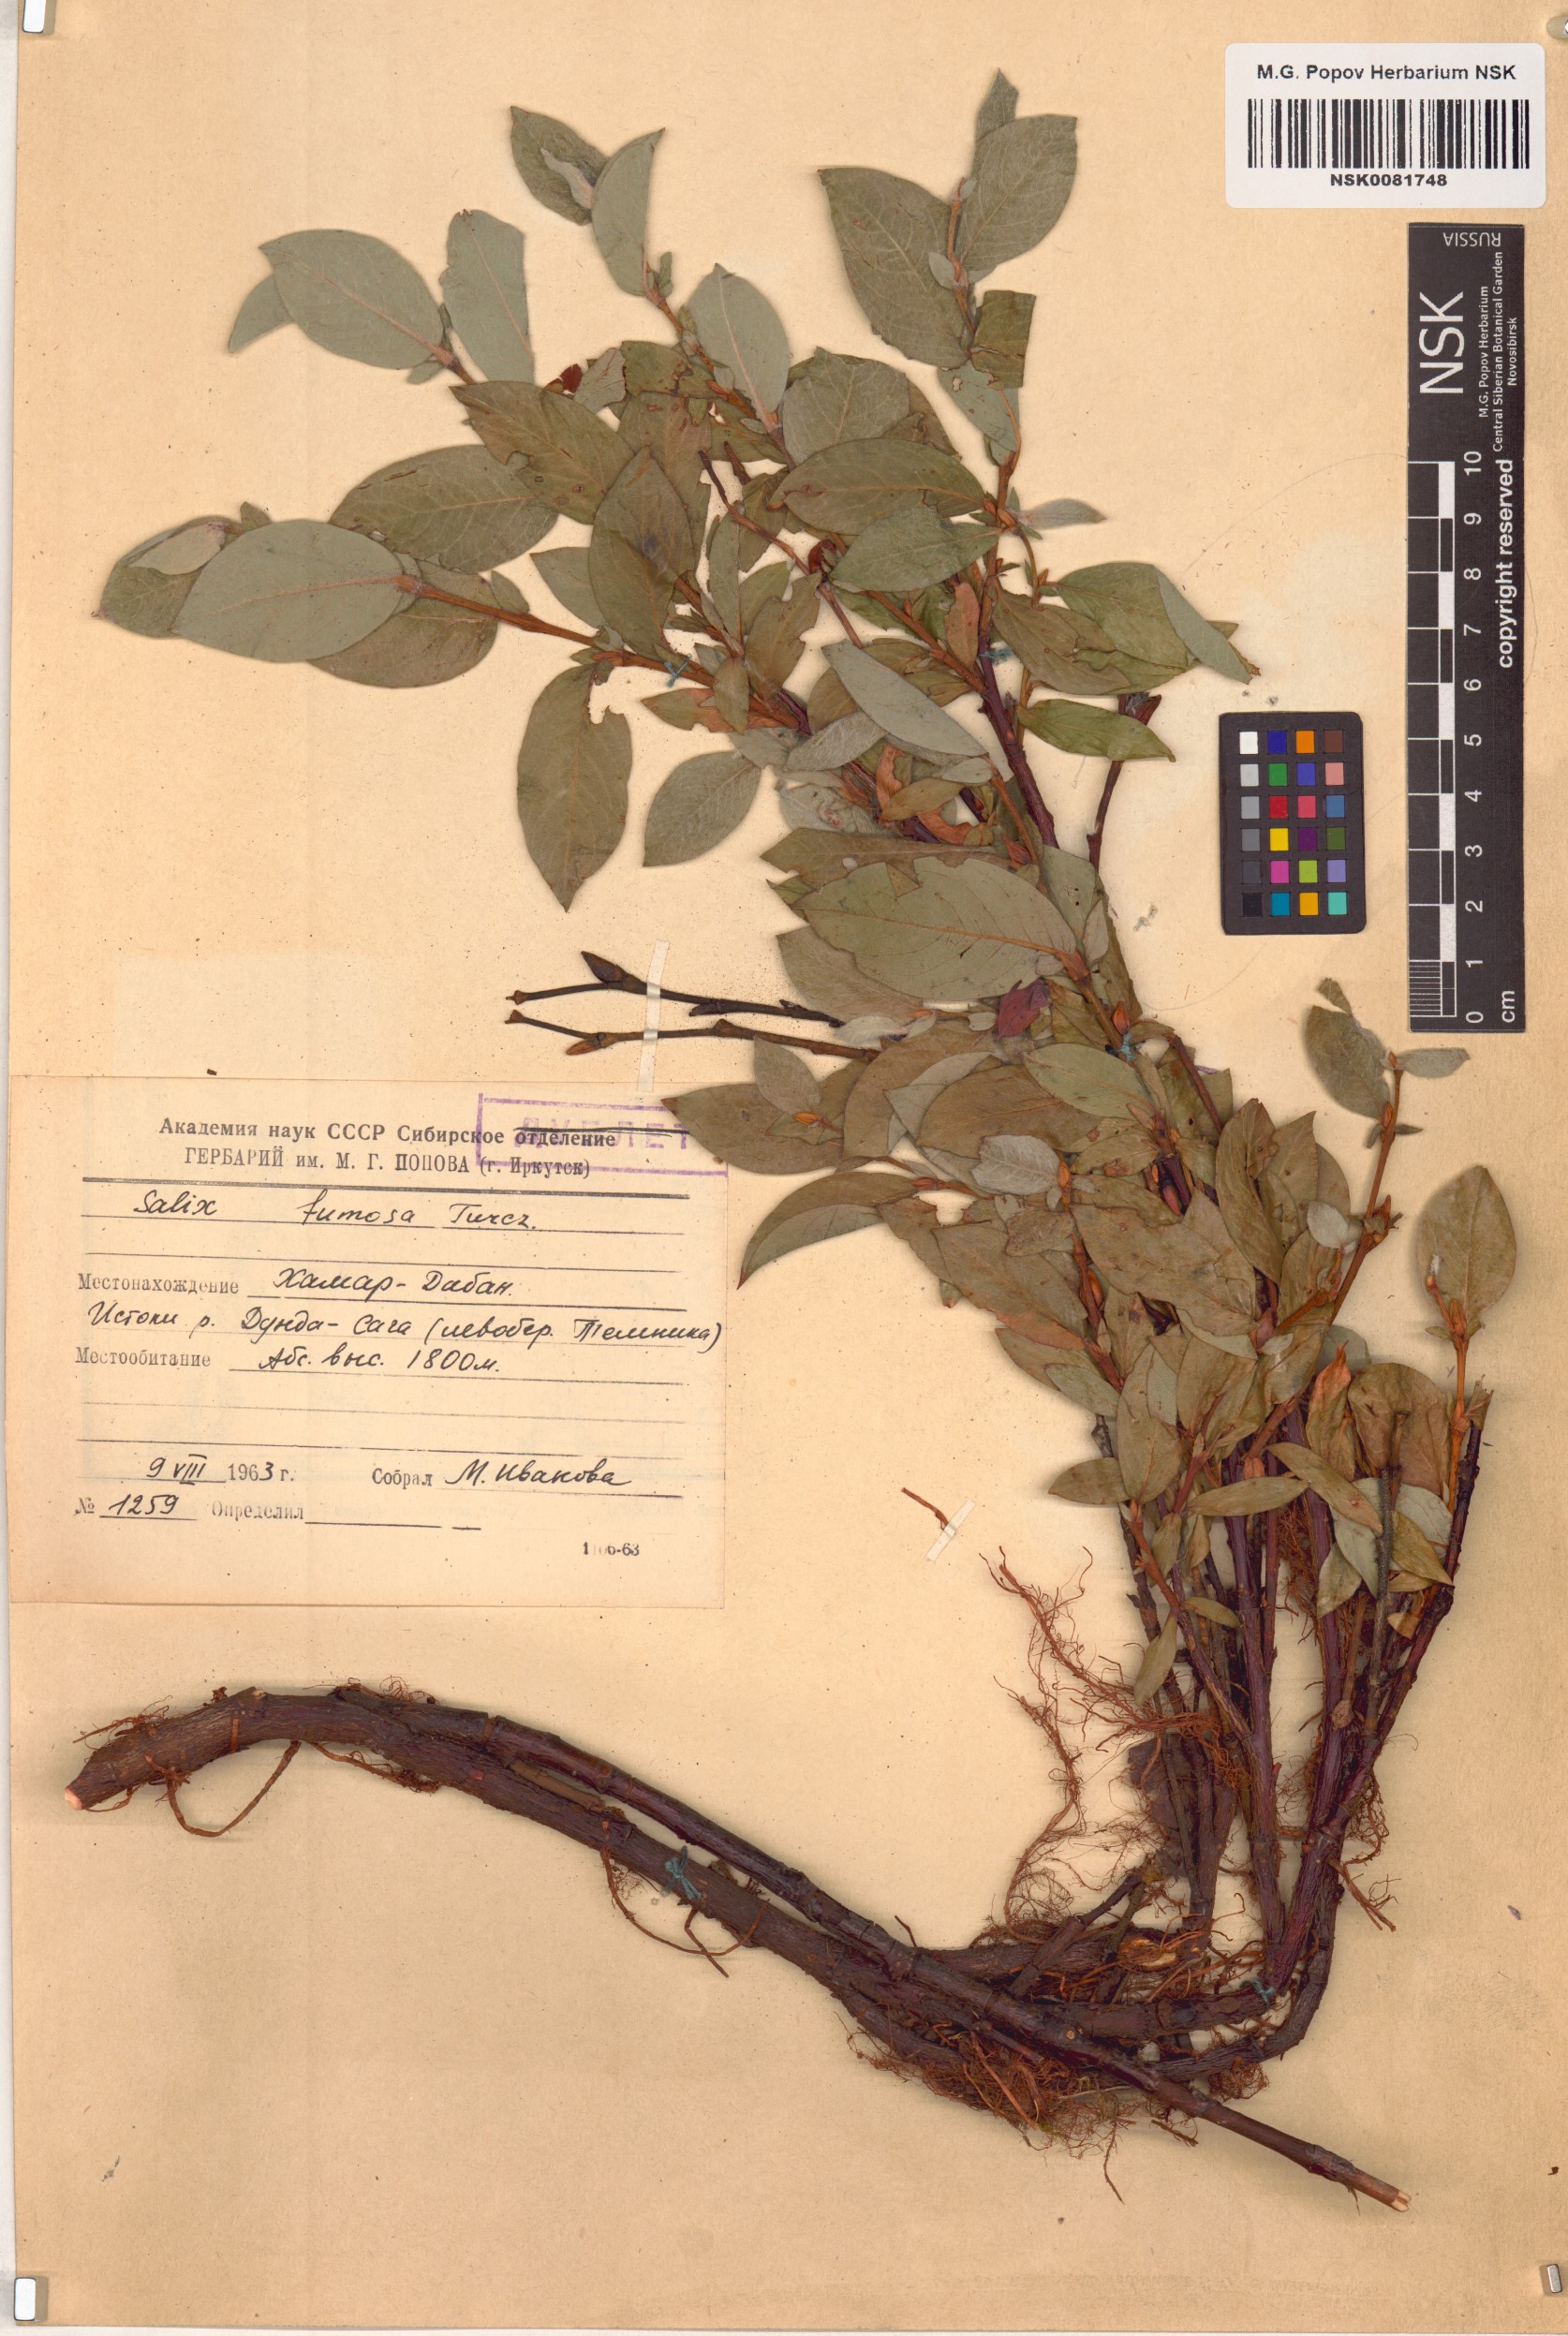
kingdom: Plantae
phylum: Tracheophyta
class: Magnoliopsida
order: Malpighiales
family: Salicaceae
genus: Salix
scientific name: Salix saxatilis
